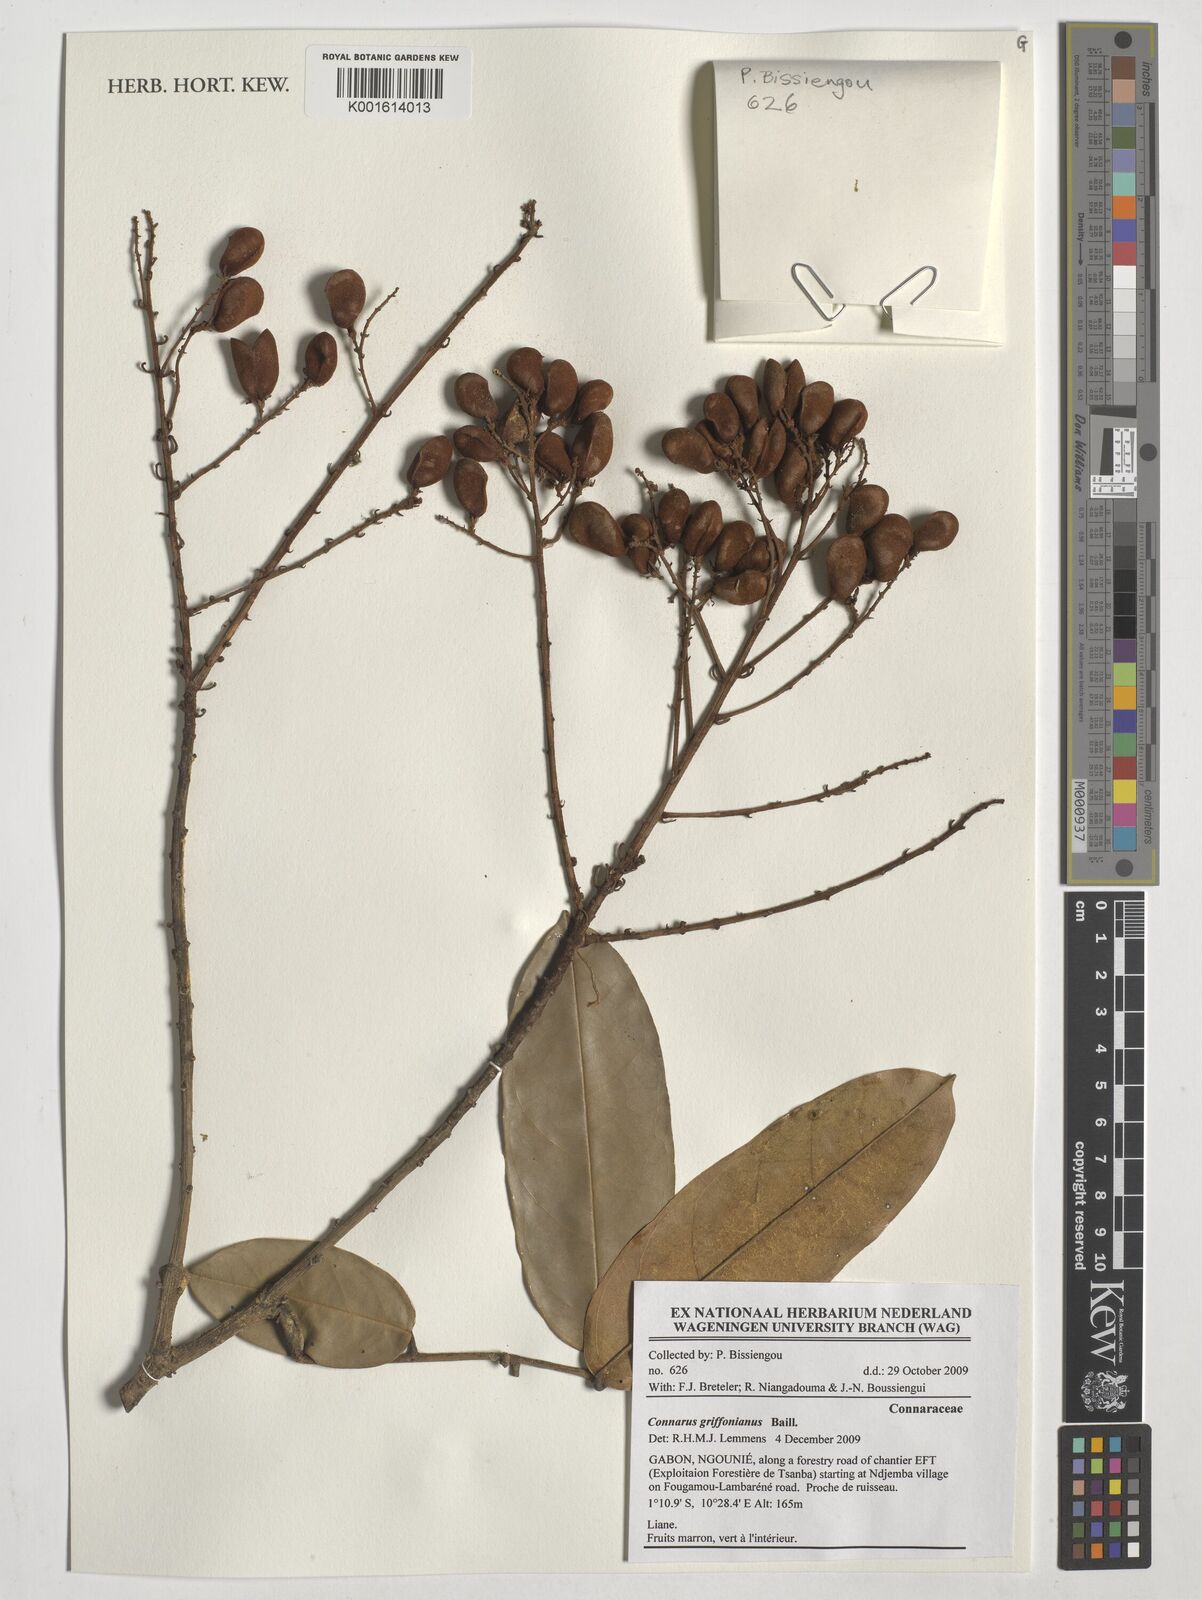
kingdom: Plantae
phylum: Tracheophyta
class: Magnoliopsida
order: Oxalidales
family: Connaraceae
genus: Connarus
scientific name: Connarus griffonianus
